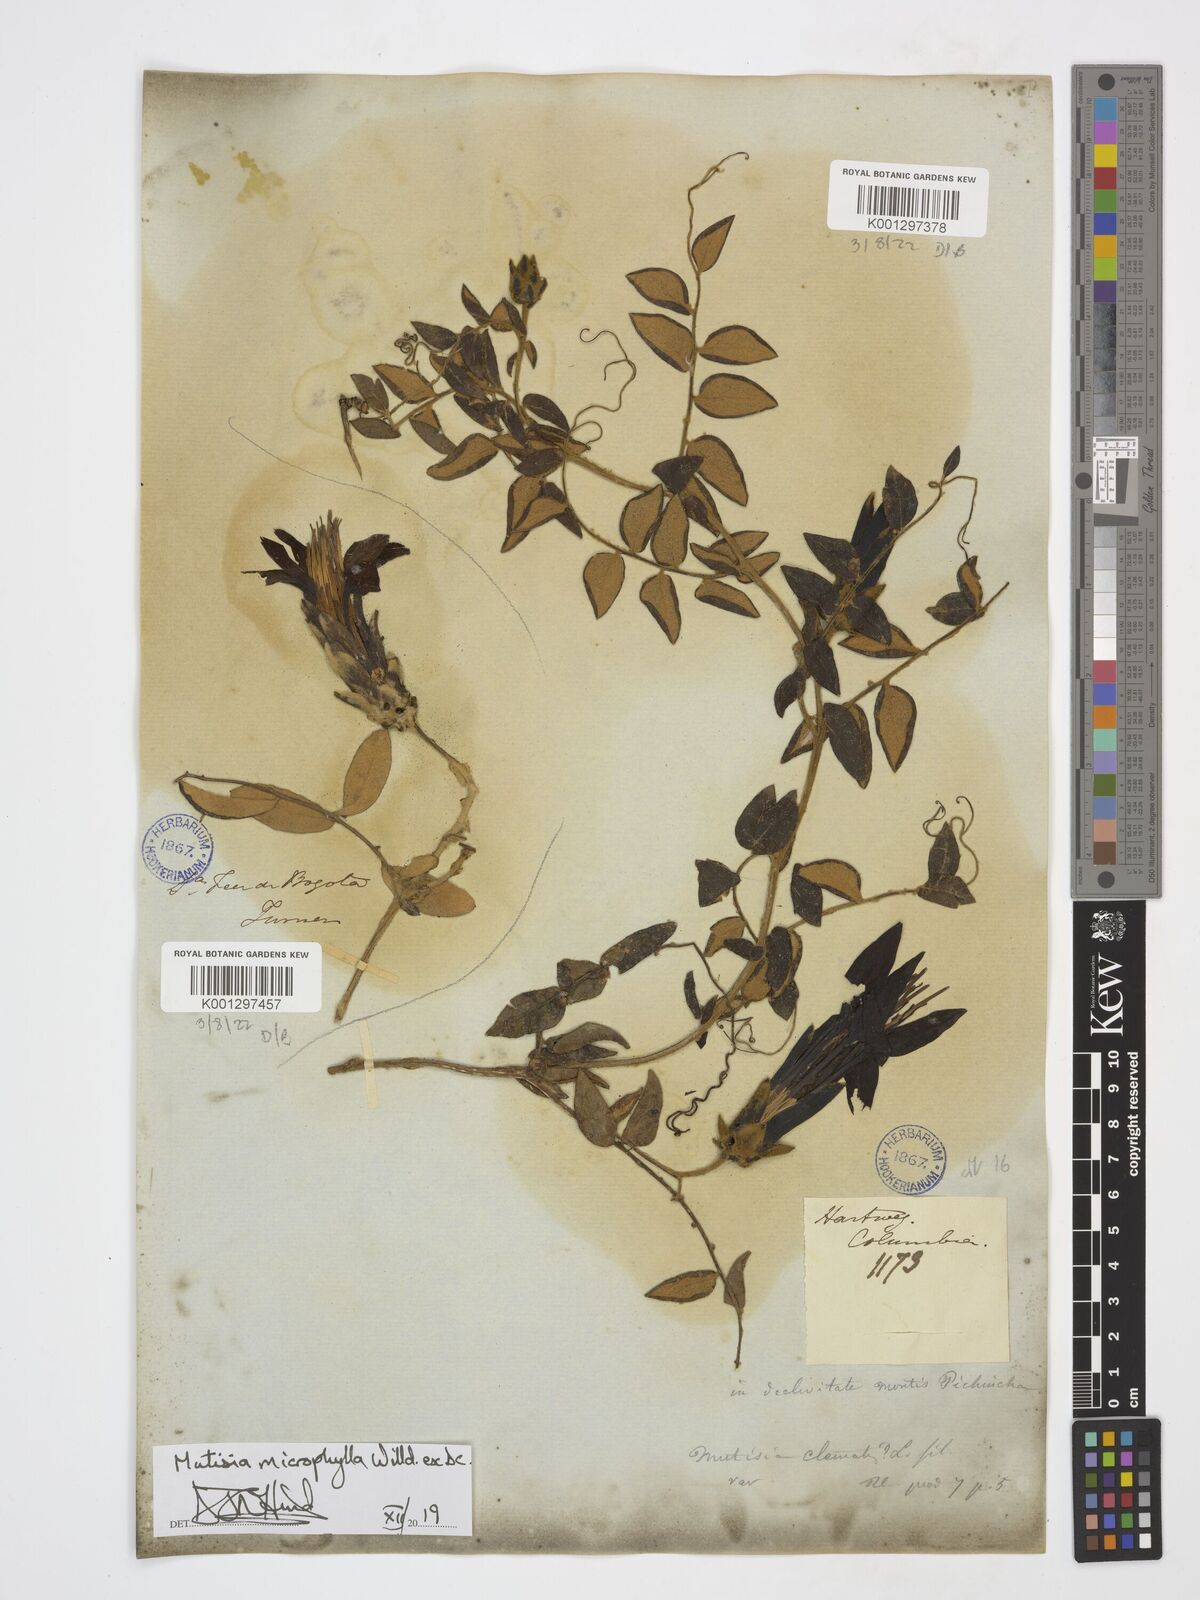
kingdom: Plantae
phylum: Tracheophyta
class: Magnoliopsida
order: Asterales
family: Asteraceae
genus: Mutisia
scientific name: Mutisia microphylla
